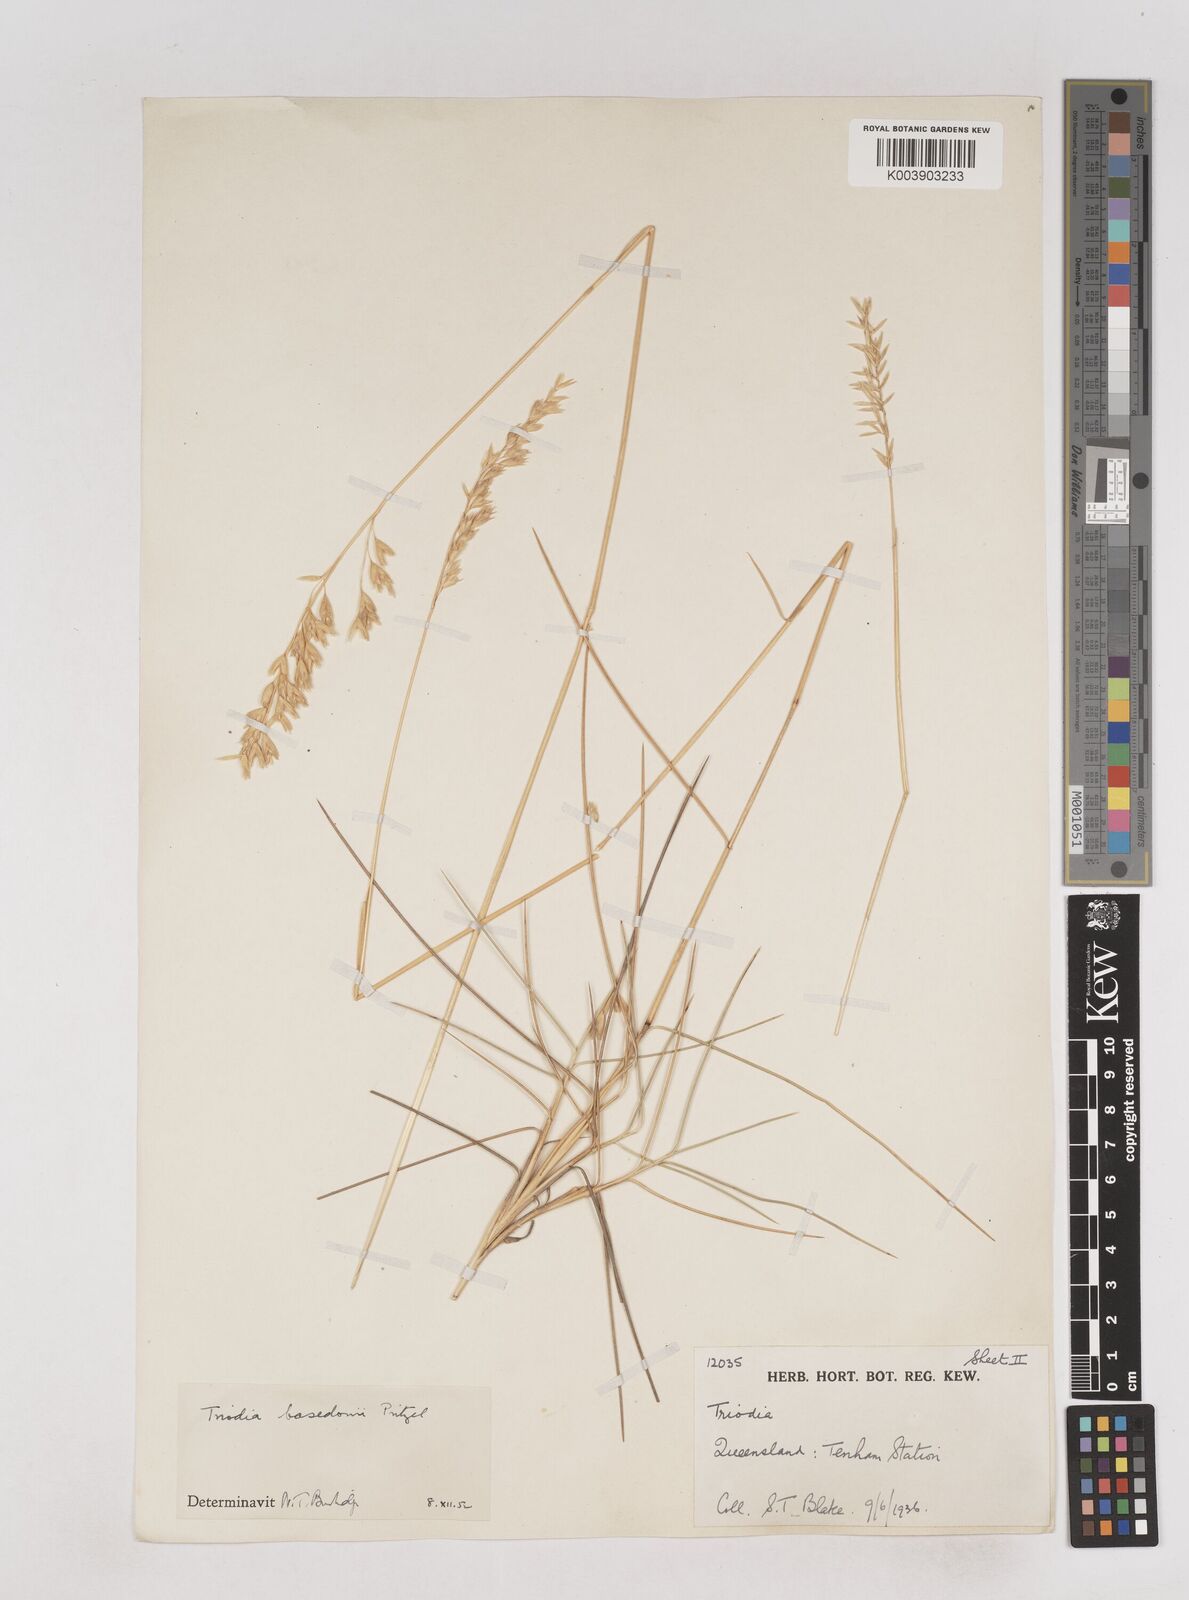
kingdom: Plantae
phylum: Tracheophyta
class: Liliopsida
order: Poales
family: Poaceae
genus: Triodia
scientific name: Triodia basedowii
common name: Hard spinifex
